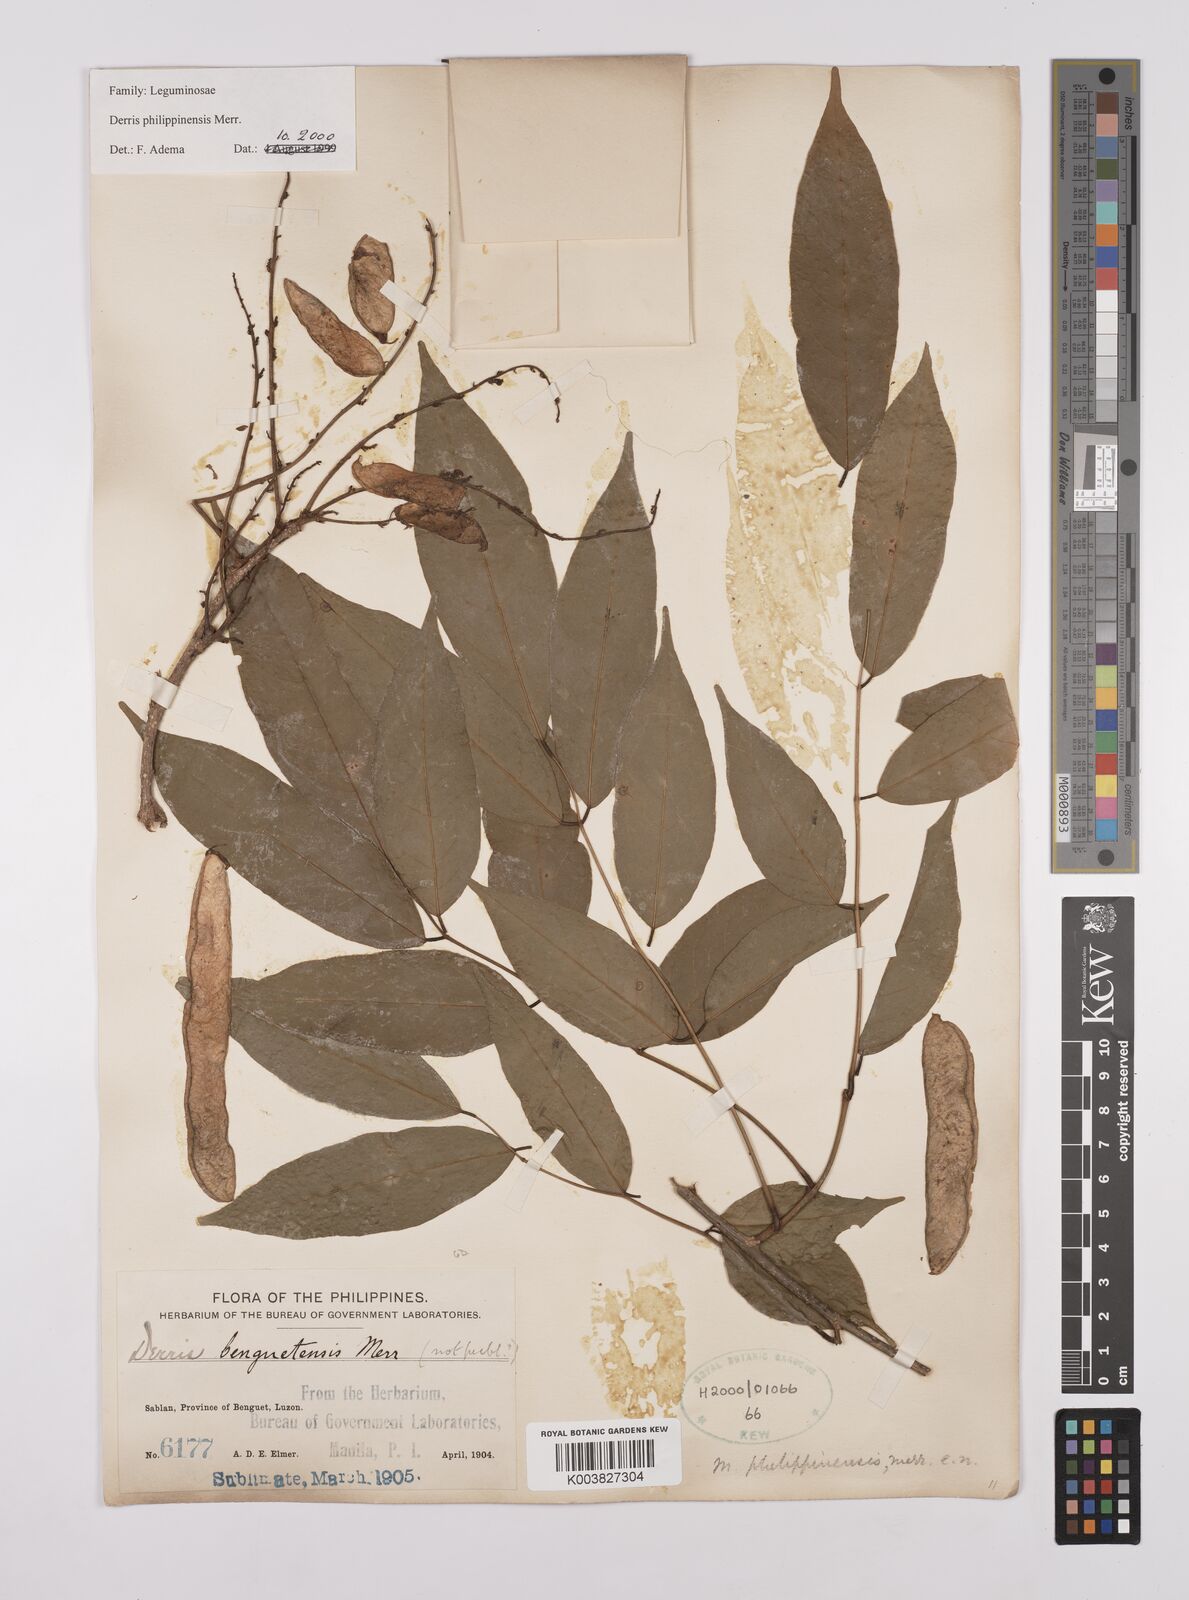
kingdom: Plantae
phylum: Tracheophyta
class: Magnoliopsida
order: Fabales
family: Fabaceae
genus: Brachypterum
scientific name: Brachypterum philippinense
